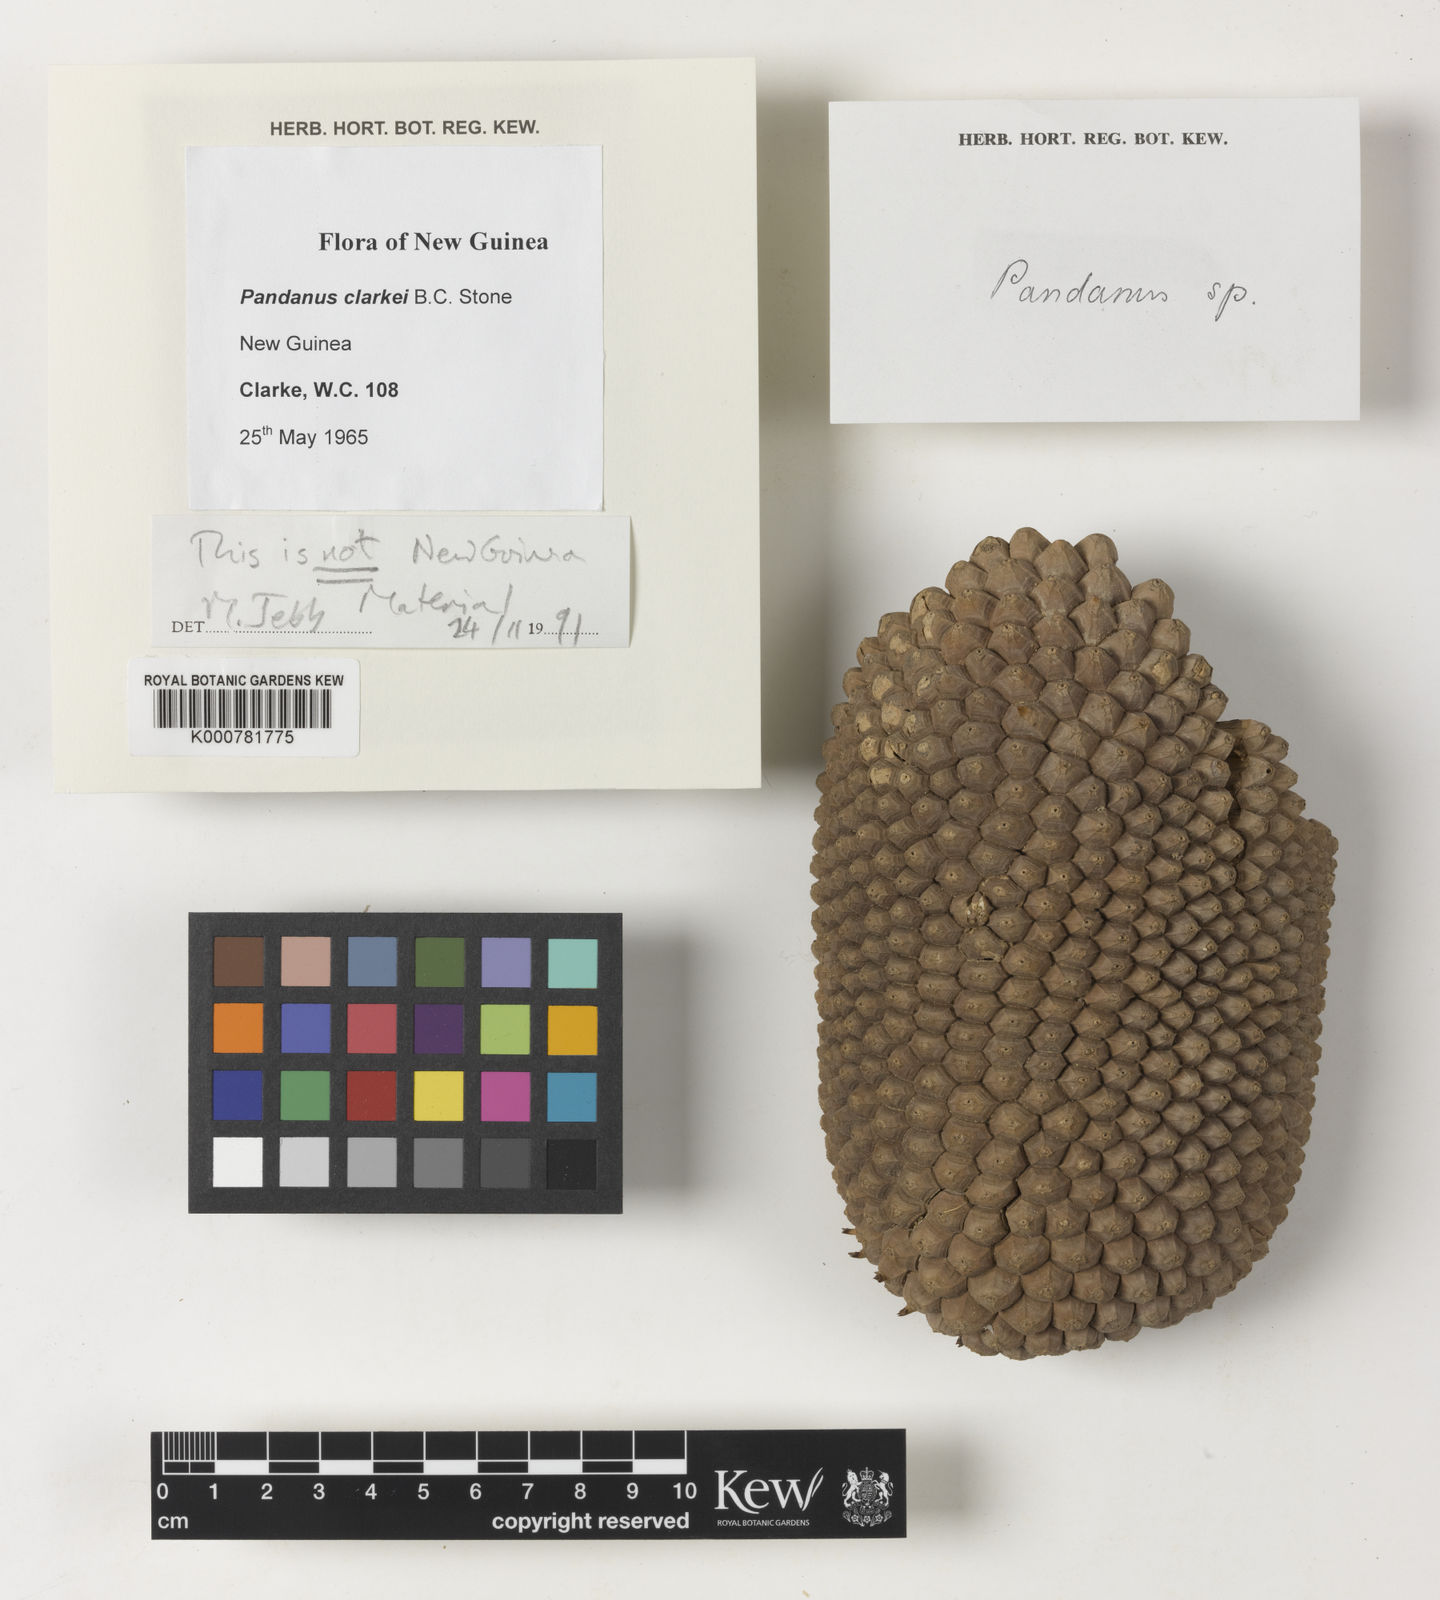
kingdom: Plantae
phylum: Tracheophyta
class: Liliopsida
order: Pandanales
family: Pandanaceae
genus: Pandanus
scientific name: Pandanus clarkei
